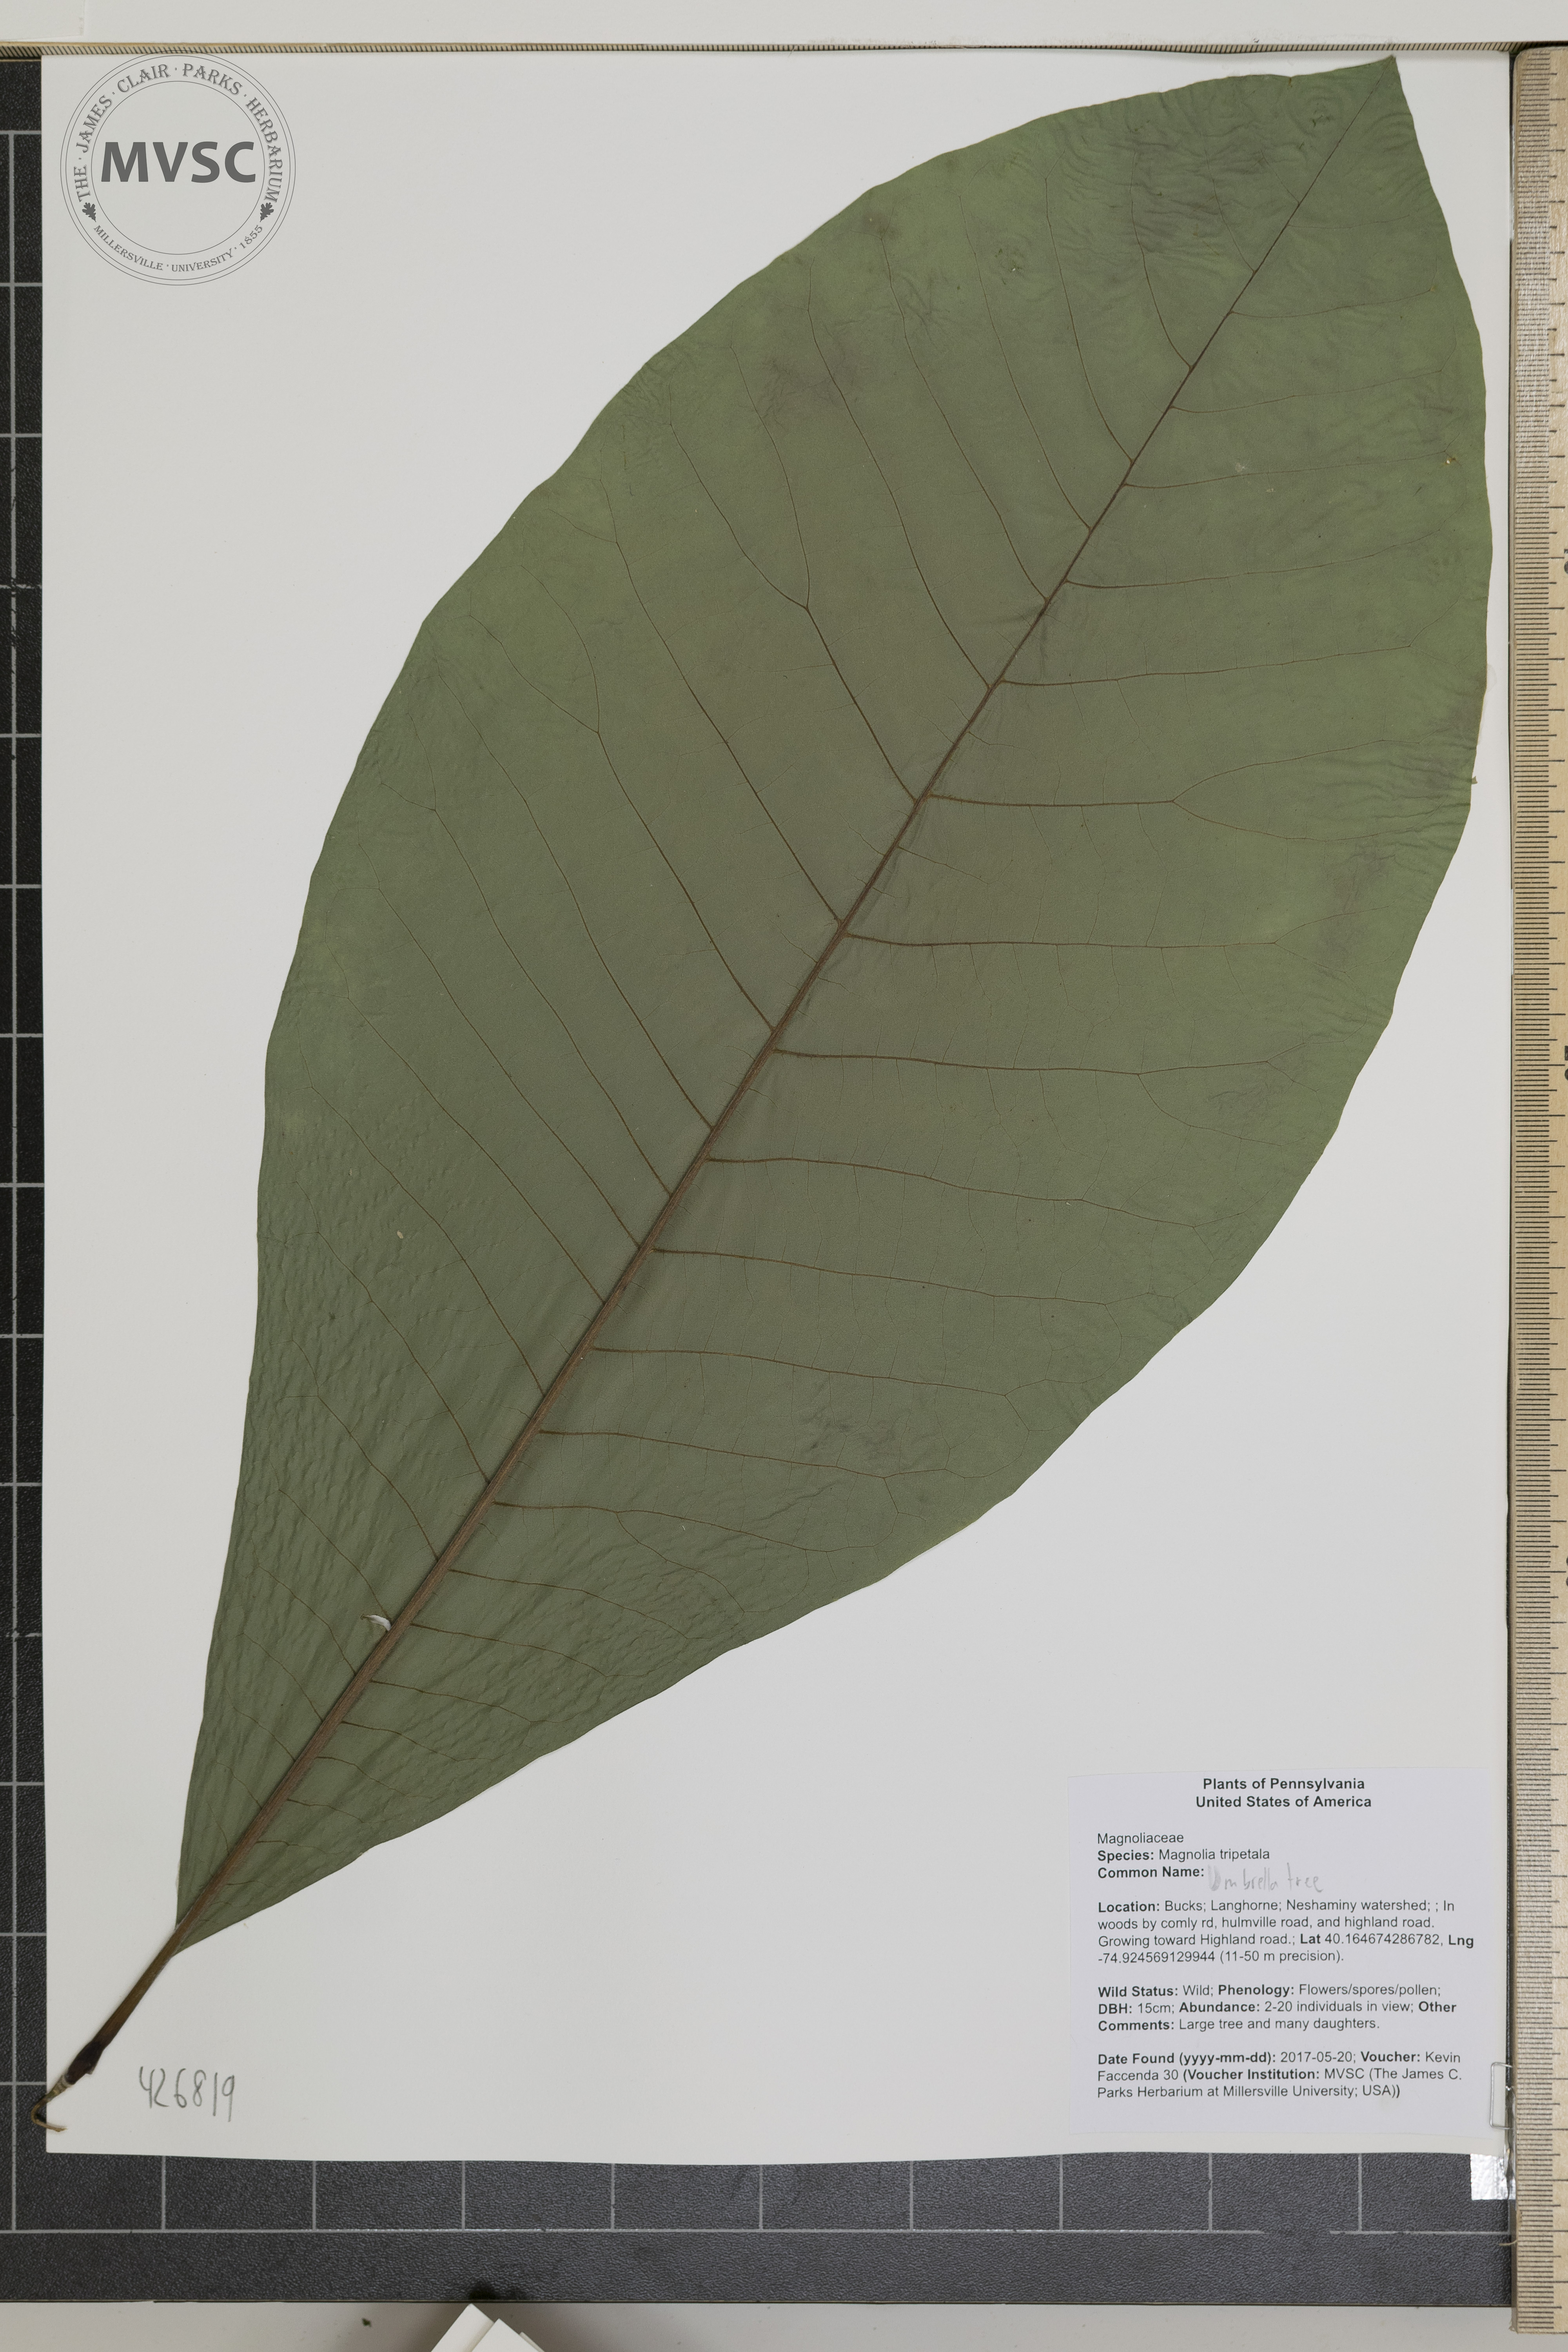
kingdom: Plantae
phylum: Tracheophyta
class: Magnoliopsida
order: Magnoliales
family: Magnoliaceae
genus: Magnolia
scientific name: Magnolia tripetala
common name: Umbrella magnolia
